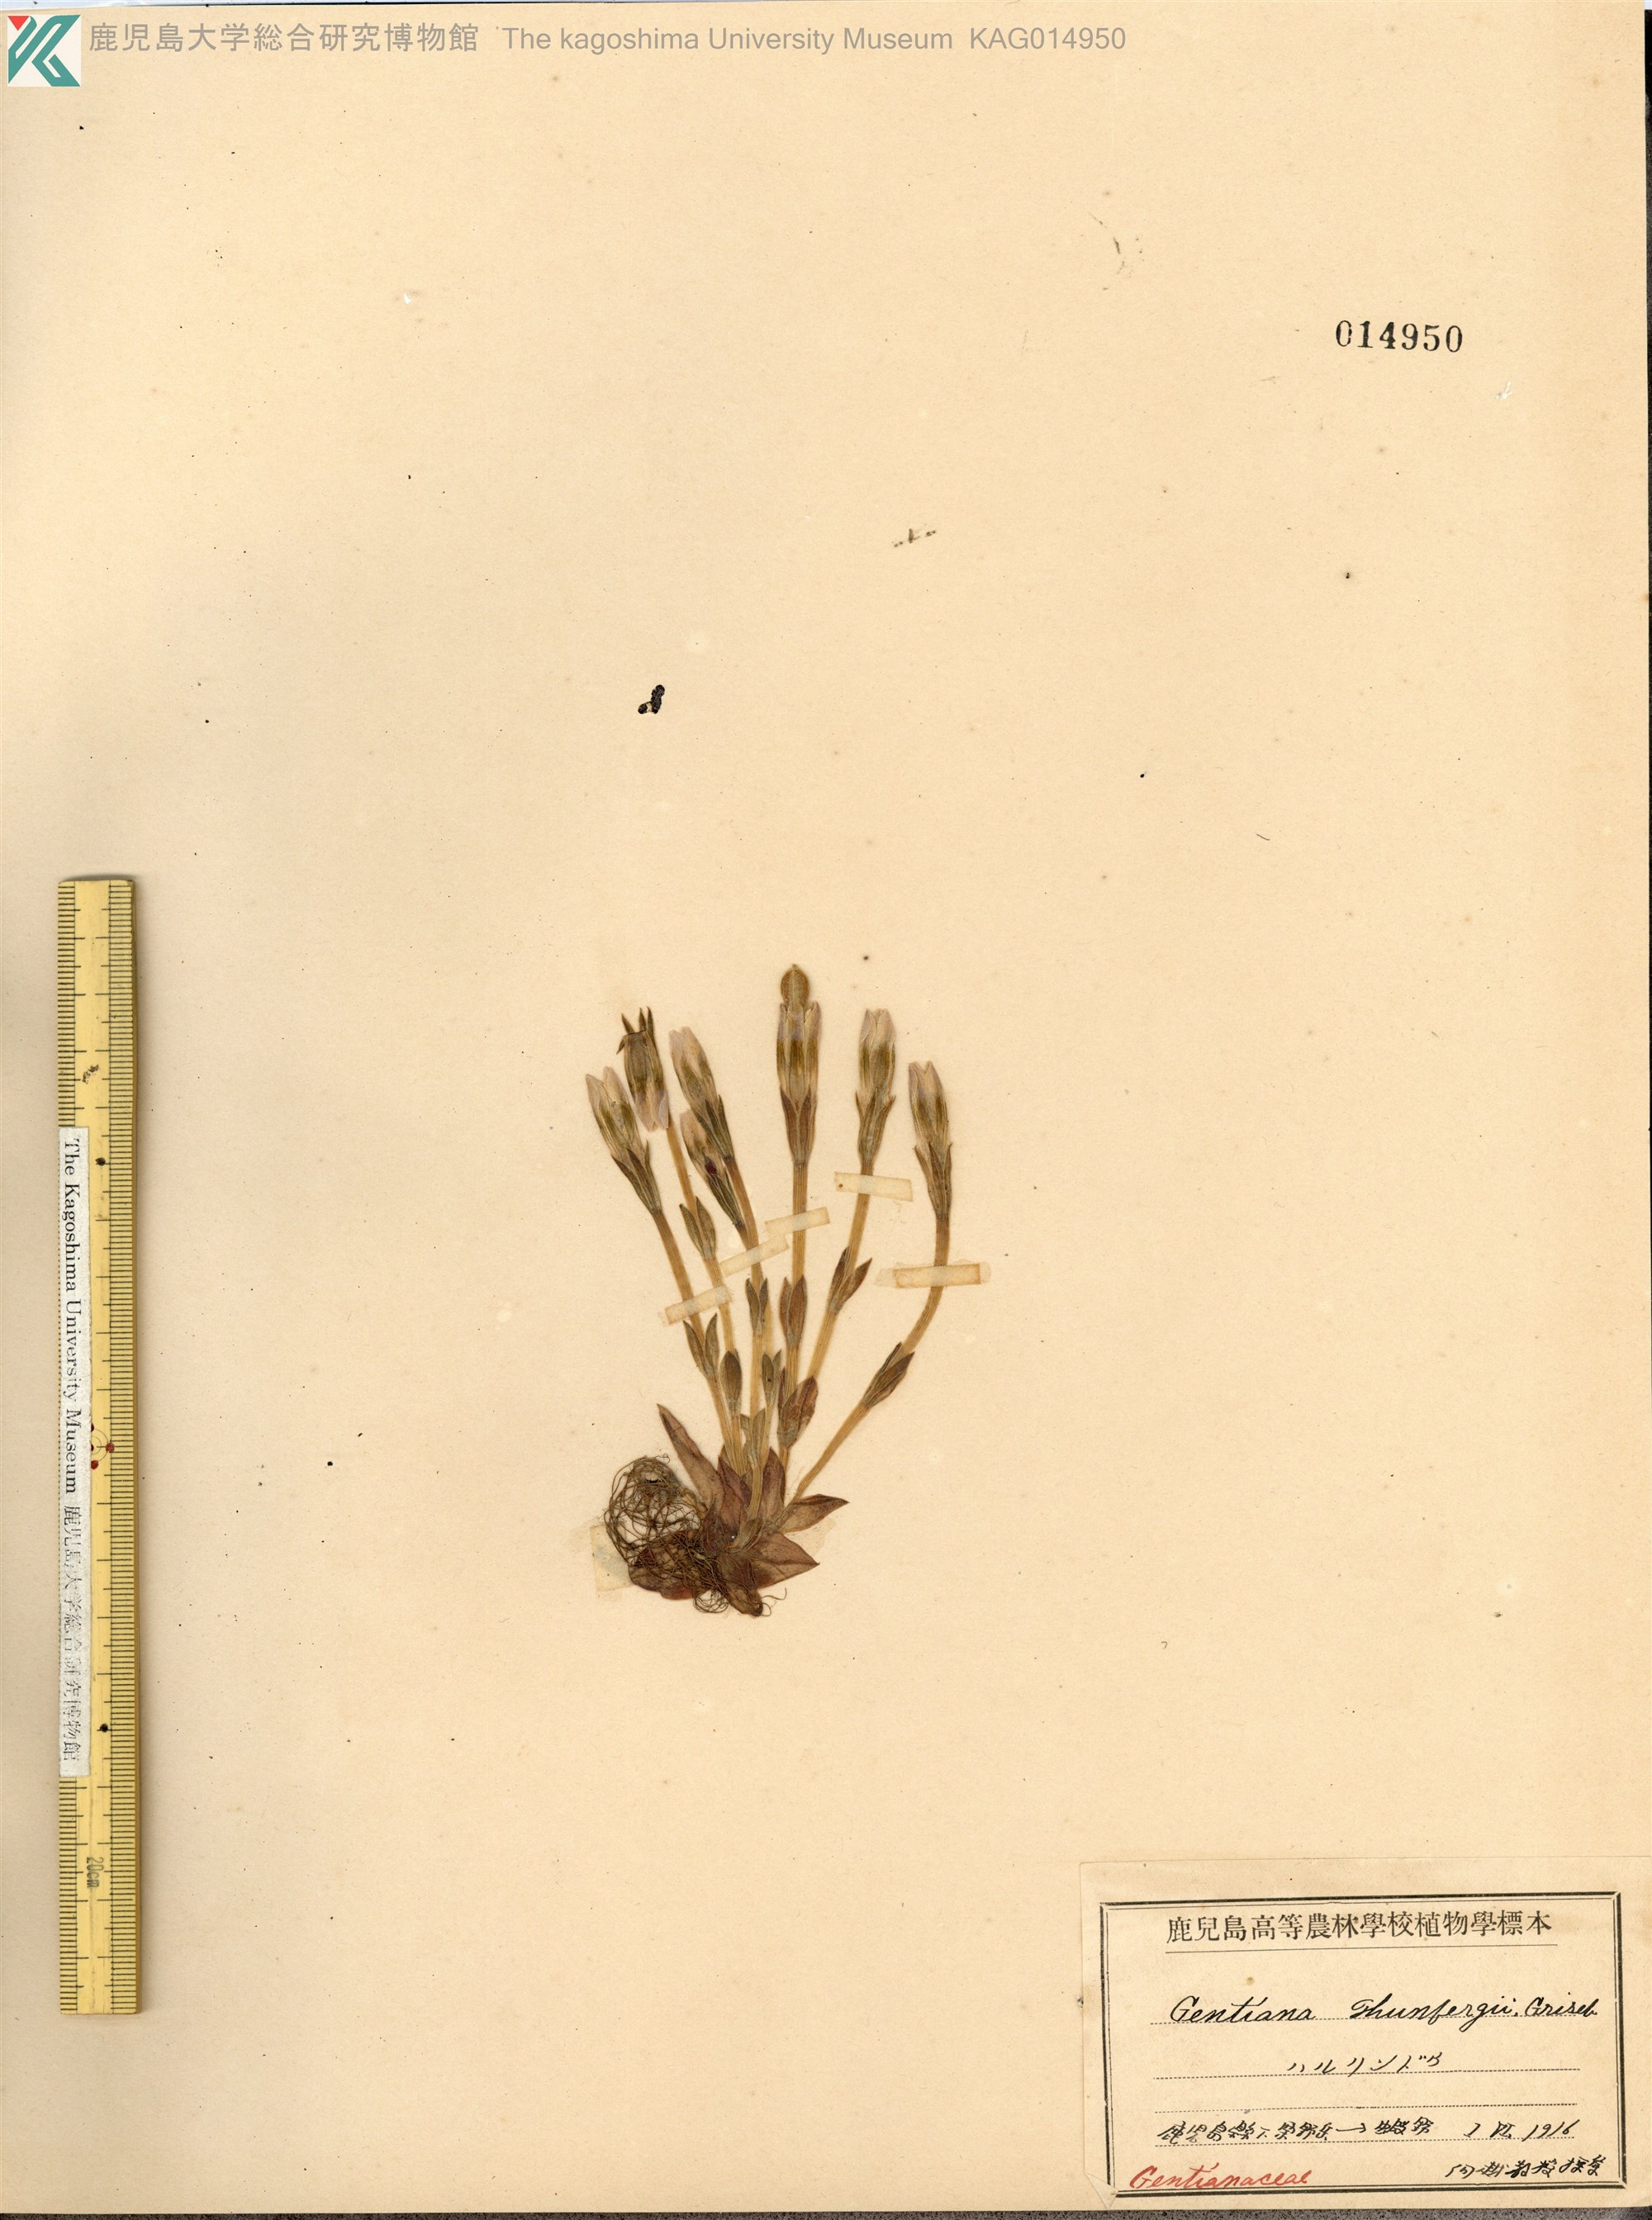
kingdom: Plantae
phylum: Tracheophyta
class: Magnoliopsida
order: Gentianales
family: Gentianaceae
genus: Gentiana
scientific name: Gentiana thunbergii
